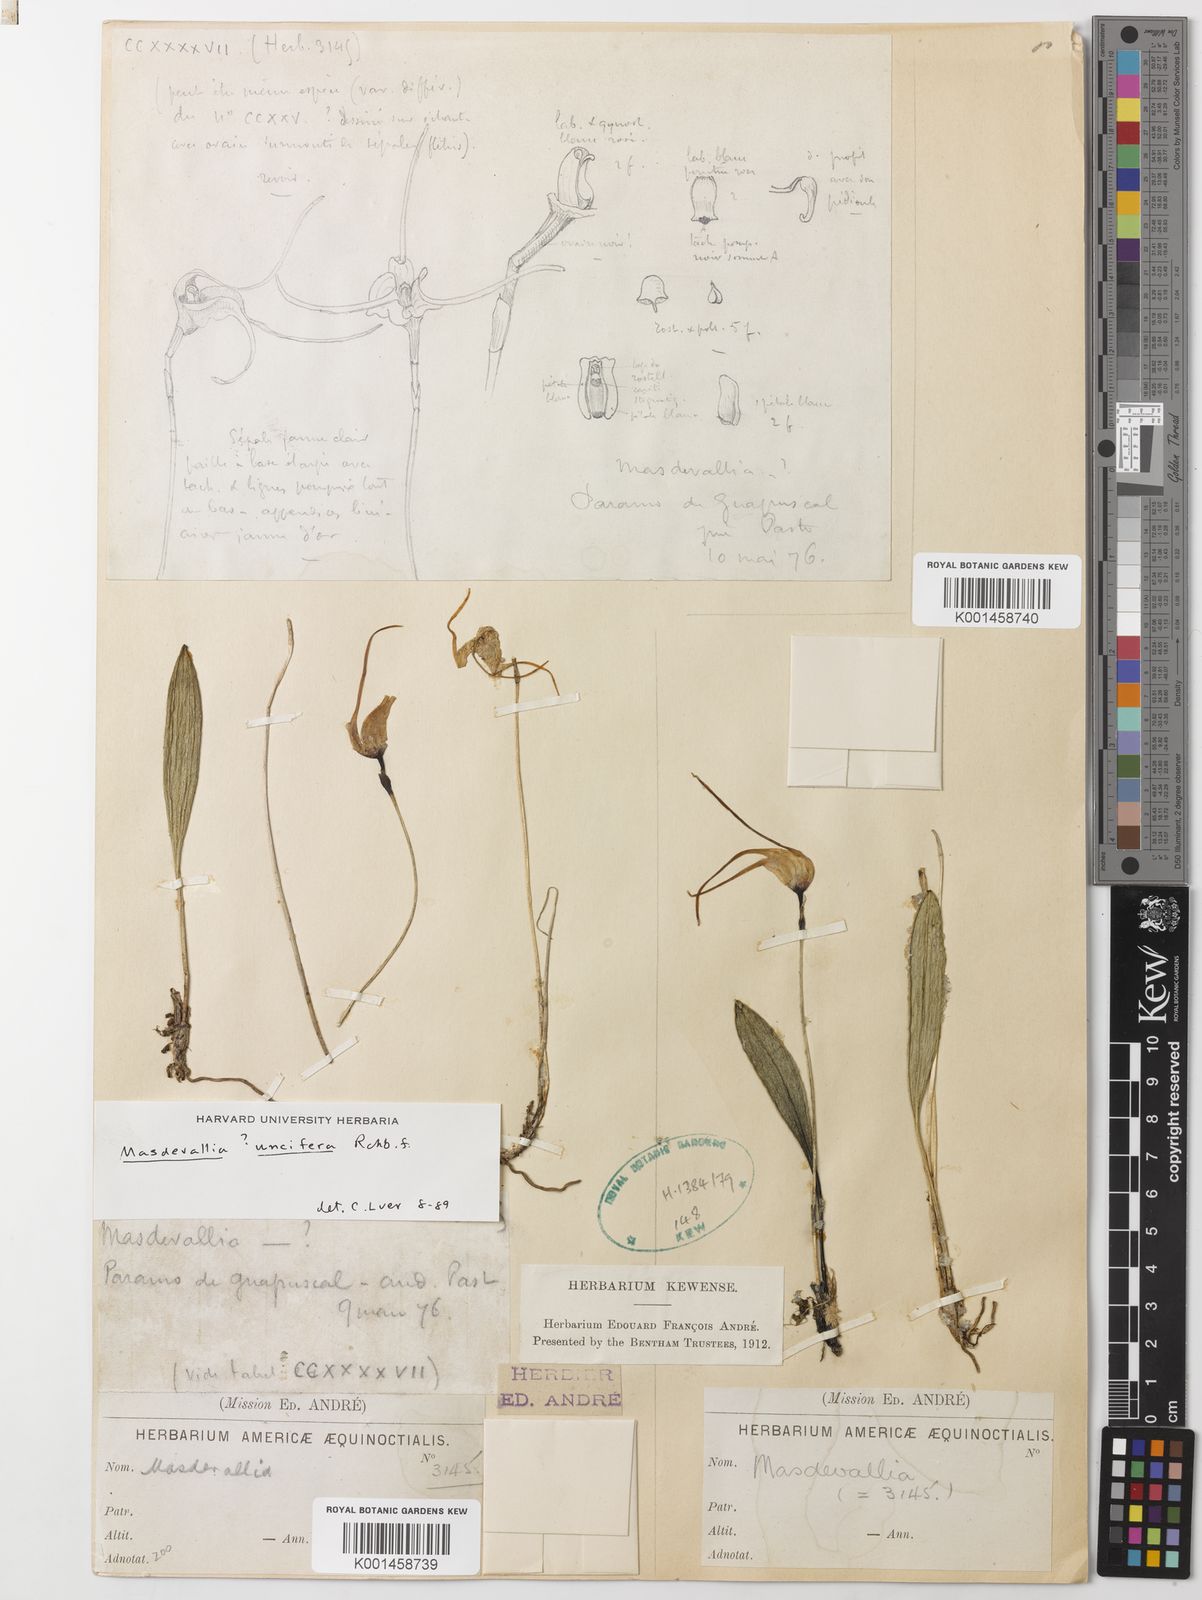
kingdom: Plantae
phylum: Tracheophyta
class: Liliopsida
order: Asparagales
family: Orchidaceae
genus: Masdevallia
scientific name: Masdevallia uncifera
